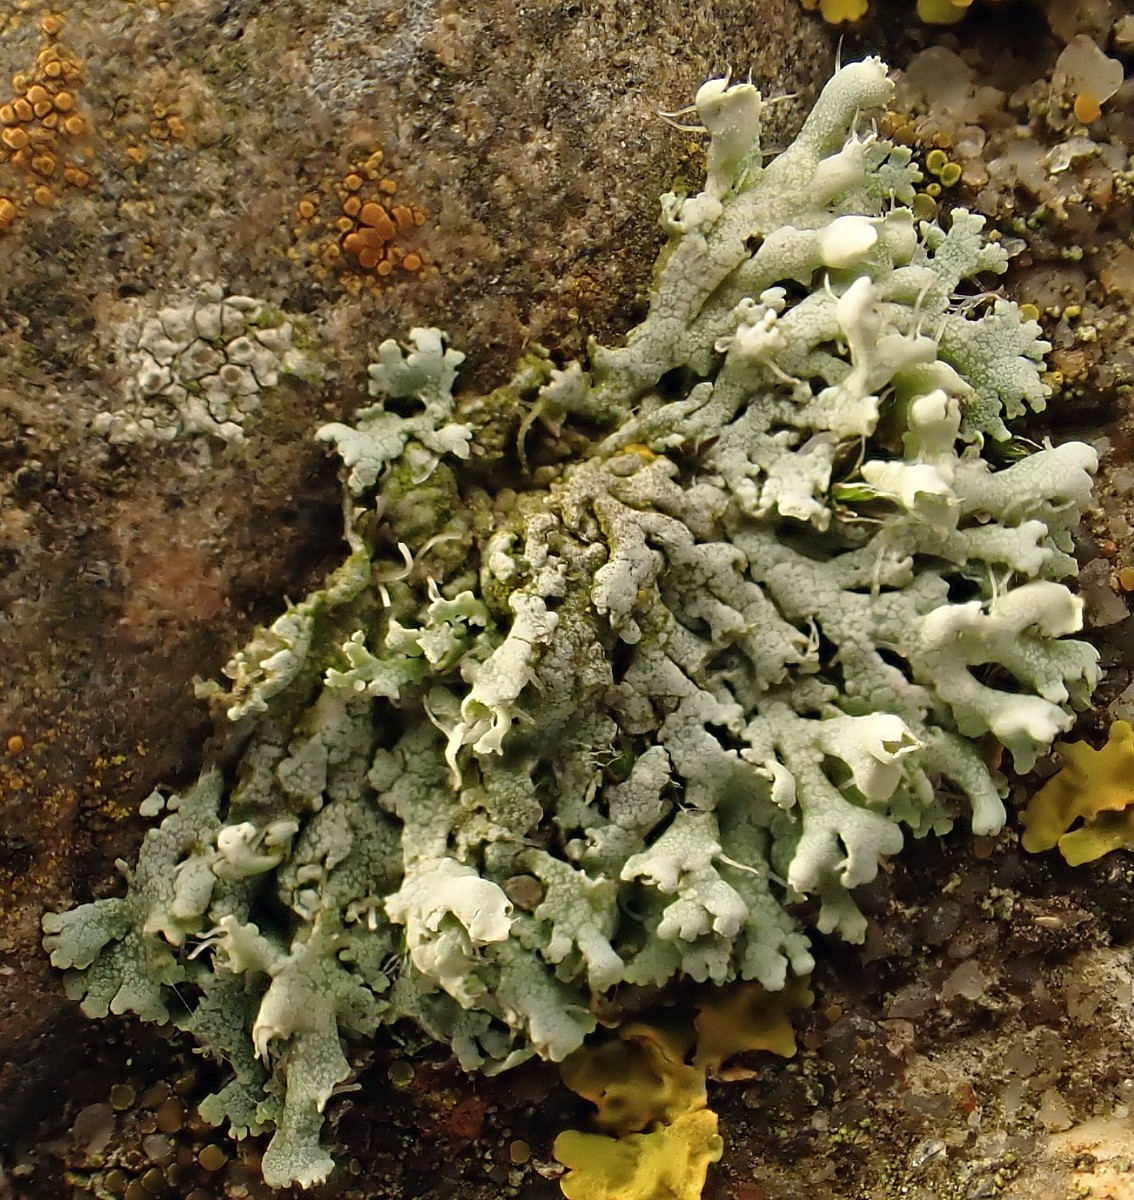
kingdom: Fungi
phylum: Ascomycota
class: Lecanoromycetes
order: Caliciales
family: Physciaceae
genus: Physcia
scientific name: Physcia adscendens
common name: hætte-rosetlav
